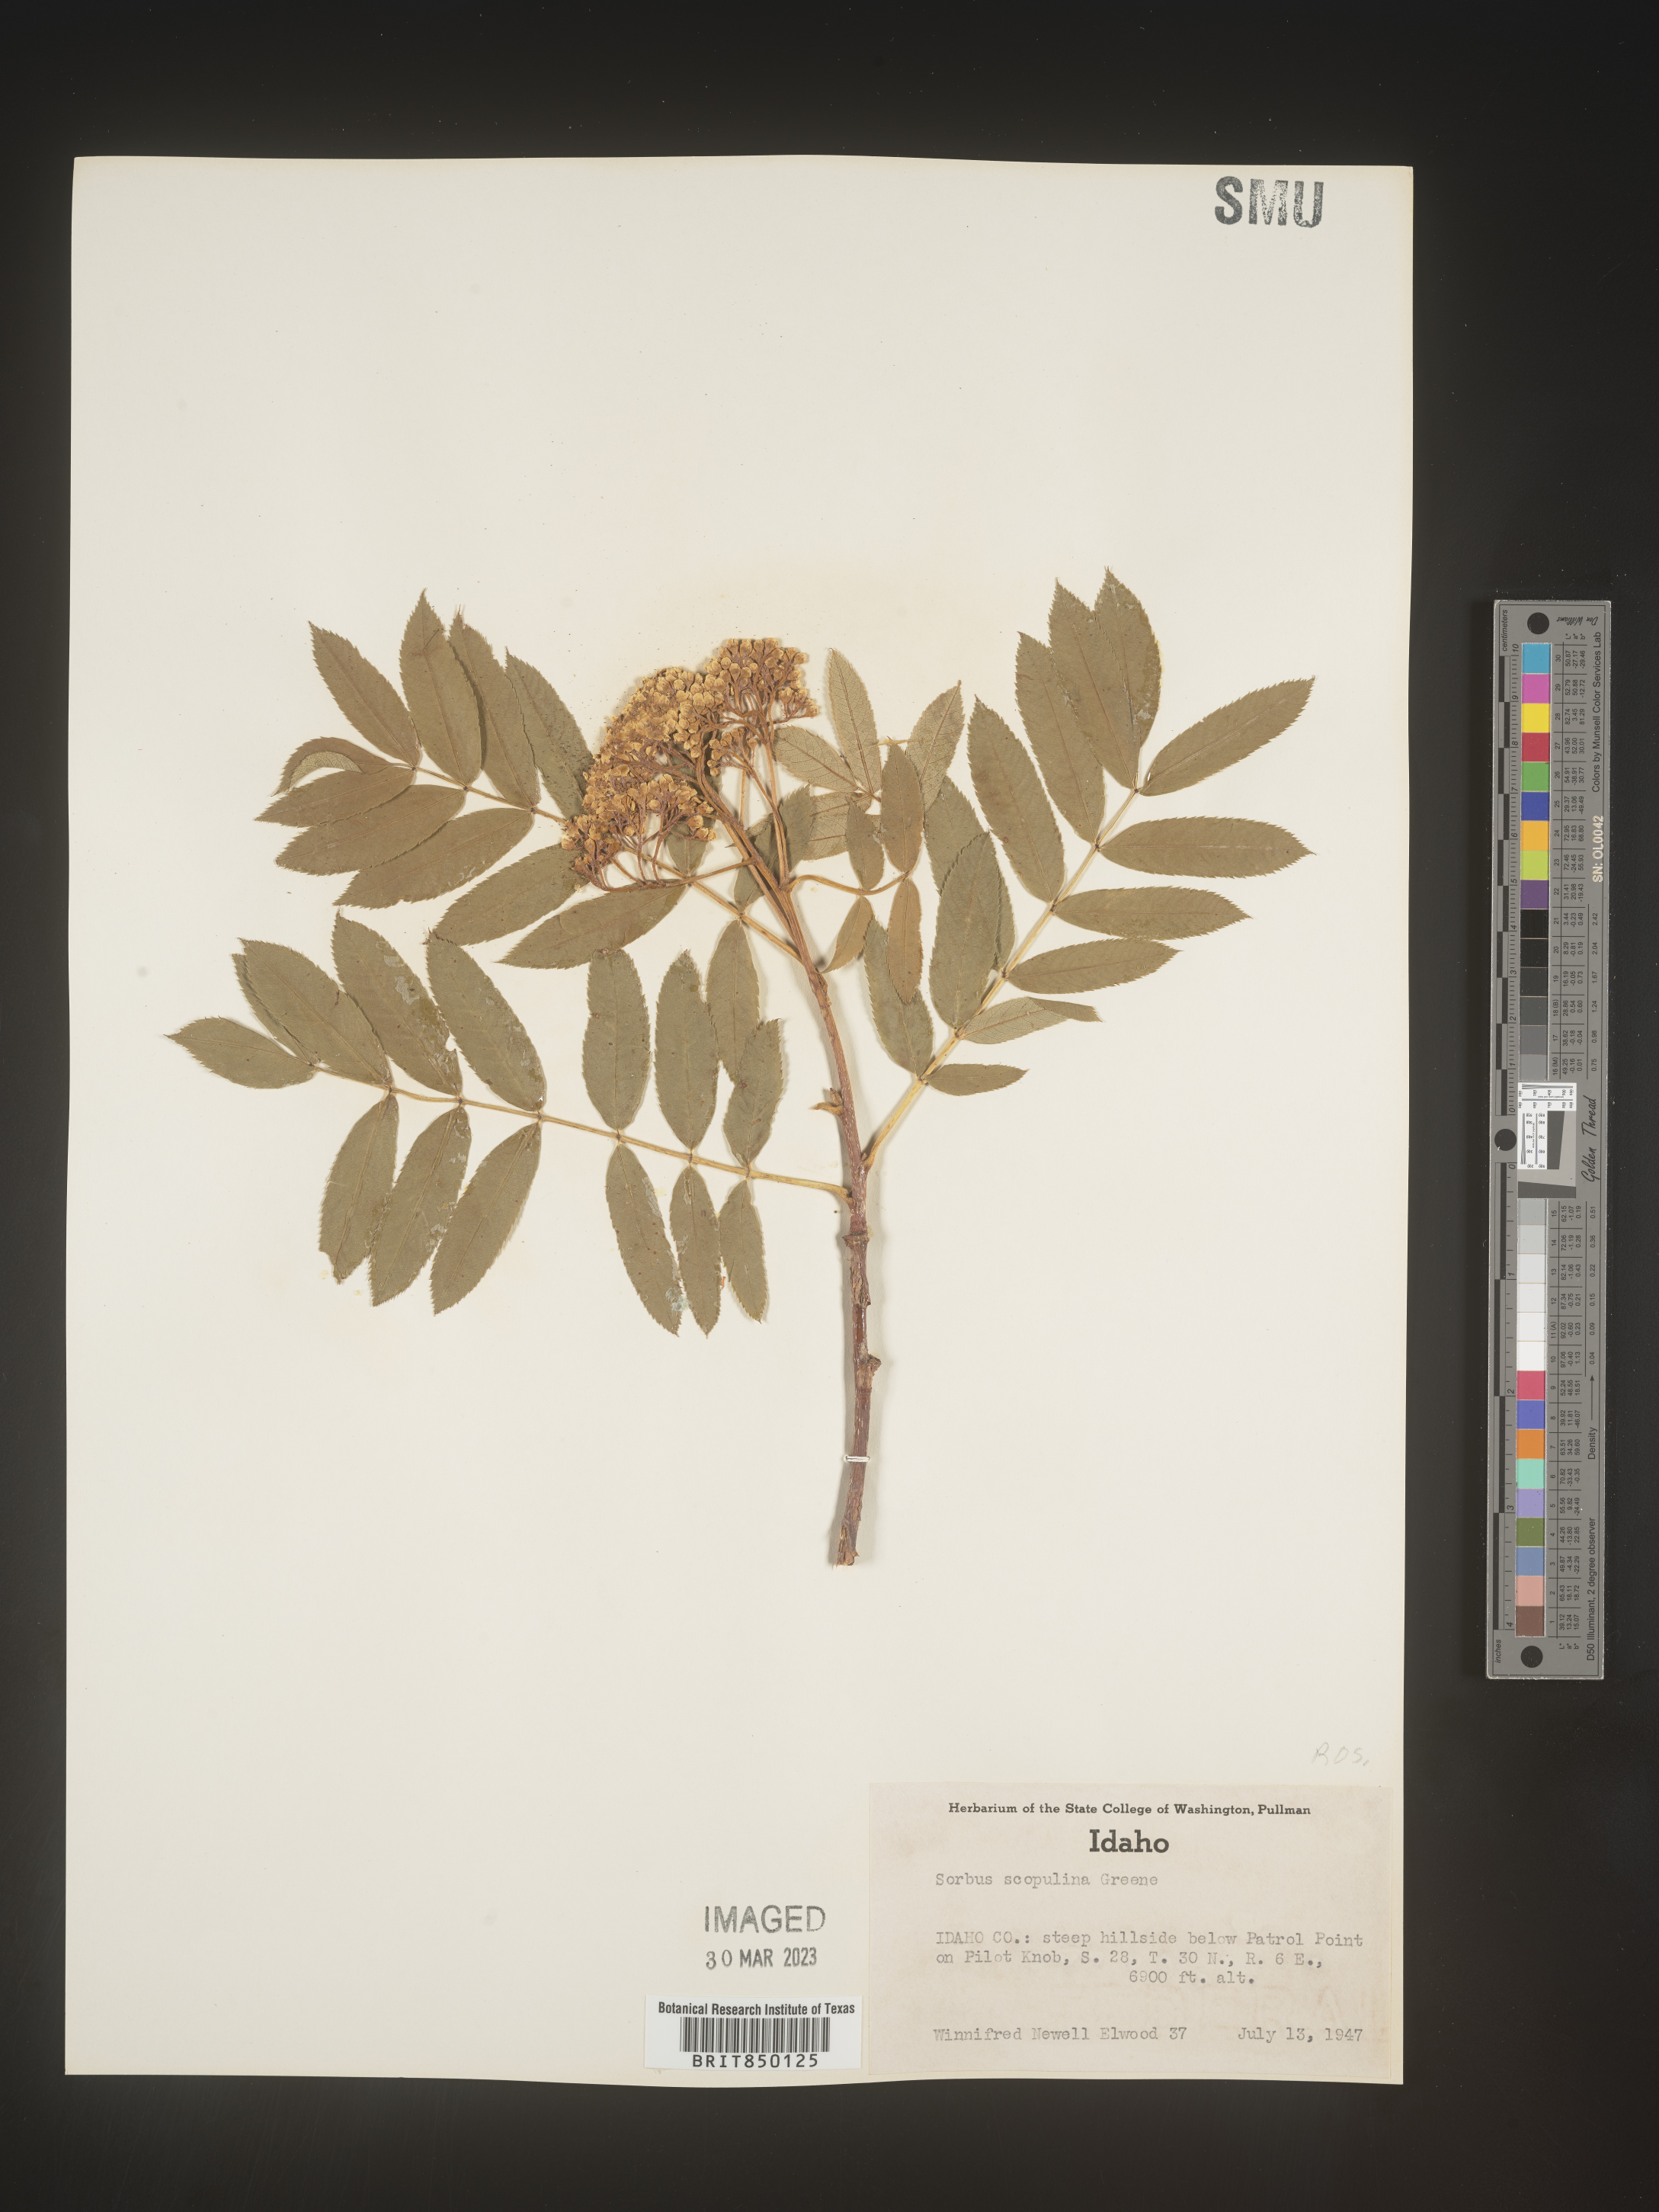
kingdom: Plantae
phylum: Tracheophyta
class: Magnoliopsida
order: Rosales
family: Rosaceae
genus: Sorbus
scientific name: Sorbus scopulina
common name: Greene's mountain-ash
